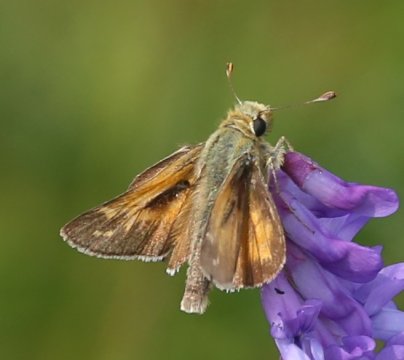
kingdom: Animalia
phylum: Arthropoda
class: Insecta
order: Lepidoptera
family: Hesperiidae
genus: Hesperia
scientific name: Hesperia
